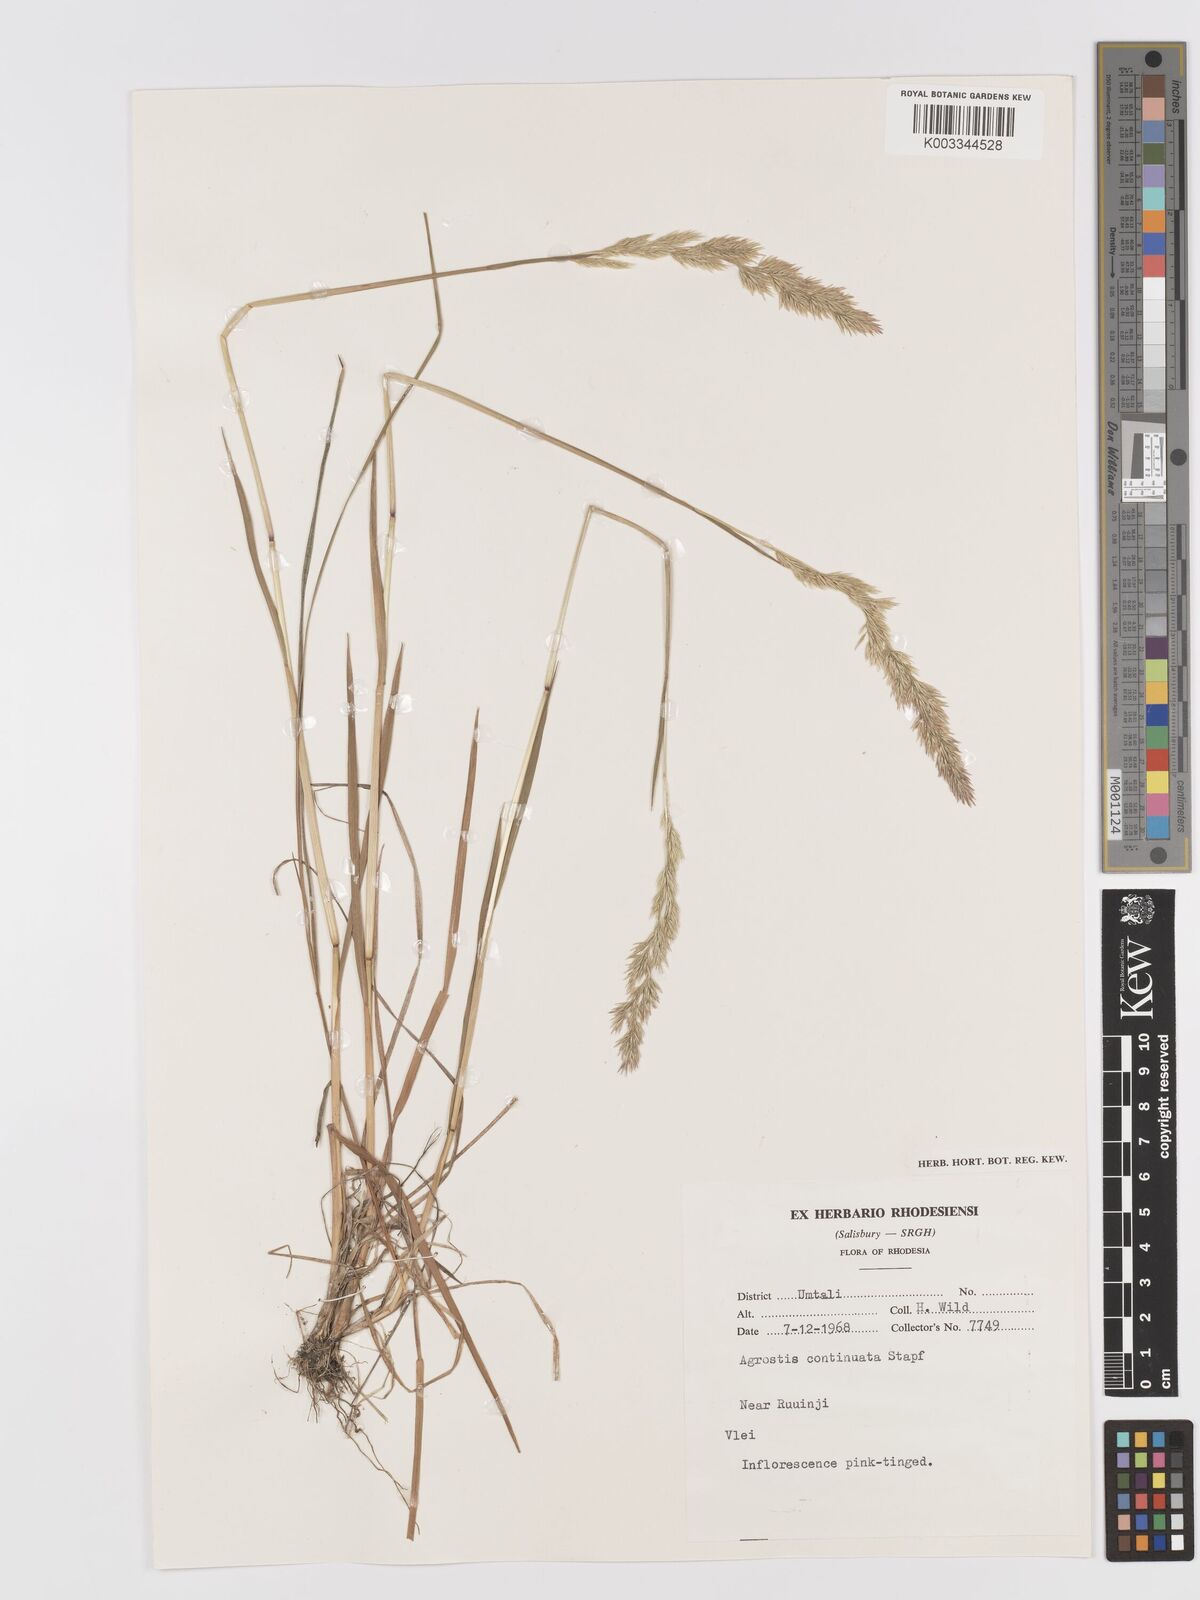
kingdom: Plantae
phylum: Tracheophyta
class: Liliopsida
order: Poales
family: Poaceae
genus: Agrostis
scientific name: Agrostis continuata
